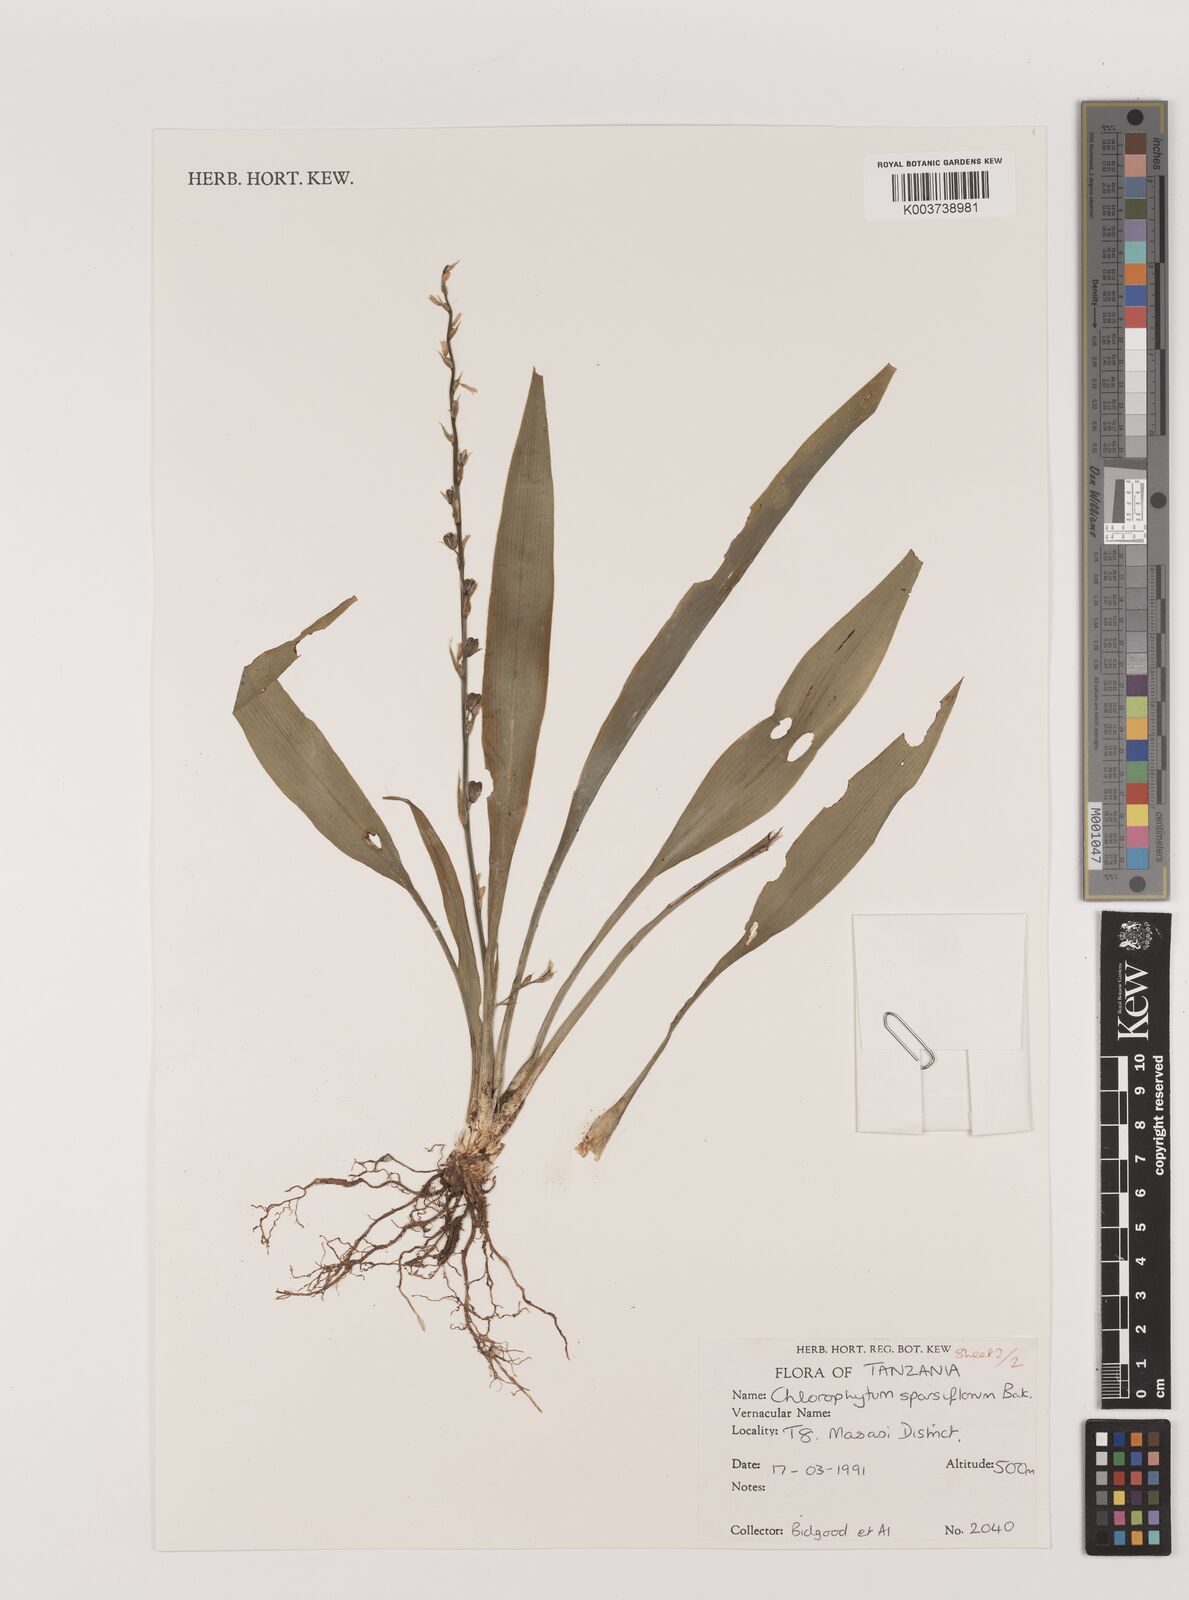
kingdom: Plantae
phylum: Tracheophyta
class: Liliopsida
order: Asparagales
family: Asparagaceae
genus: Chlorophytum
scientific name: Chlorophytum comosum
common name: Spider plant
